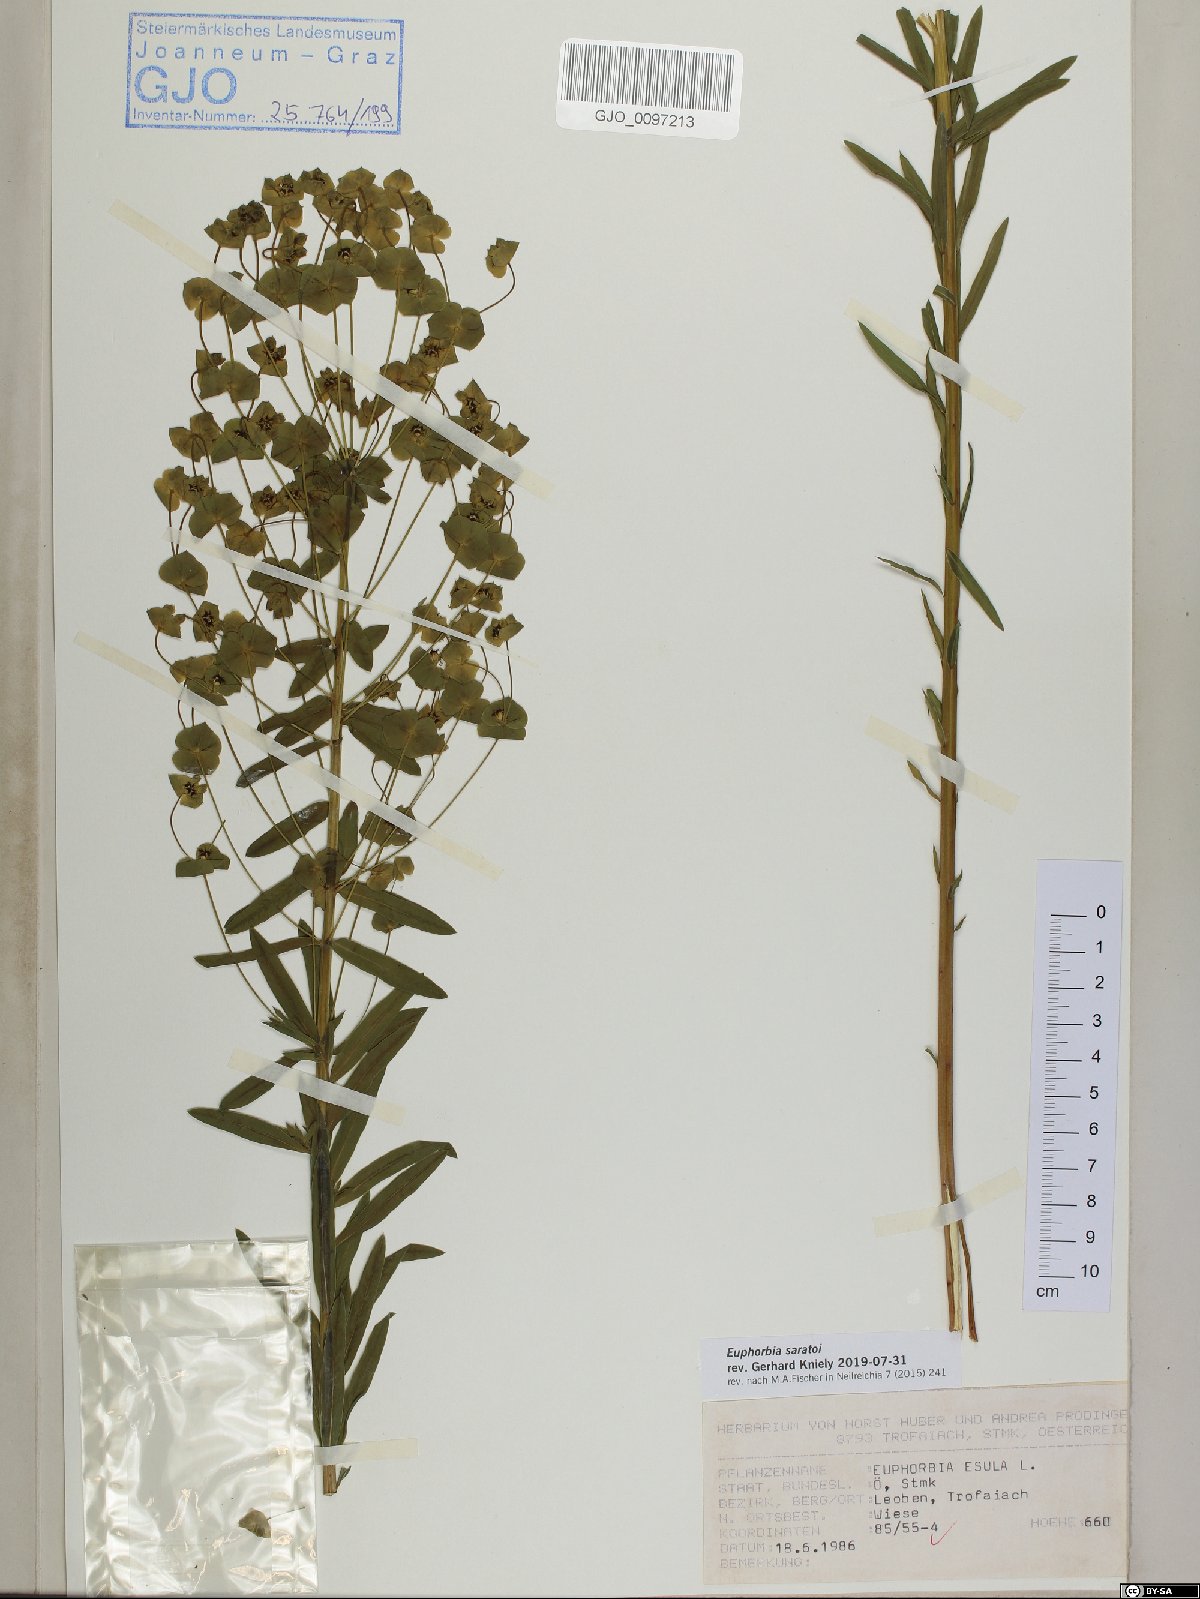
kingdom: Plantae
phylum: Tracheophyta
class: Magnoliopsida
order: Malpighiales
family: Euphorbiaceae
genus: Euphorbia
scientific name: Euphorbia saratoi
